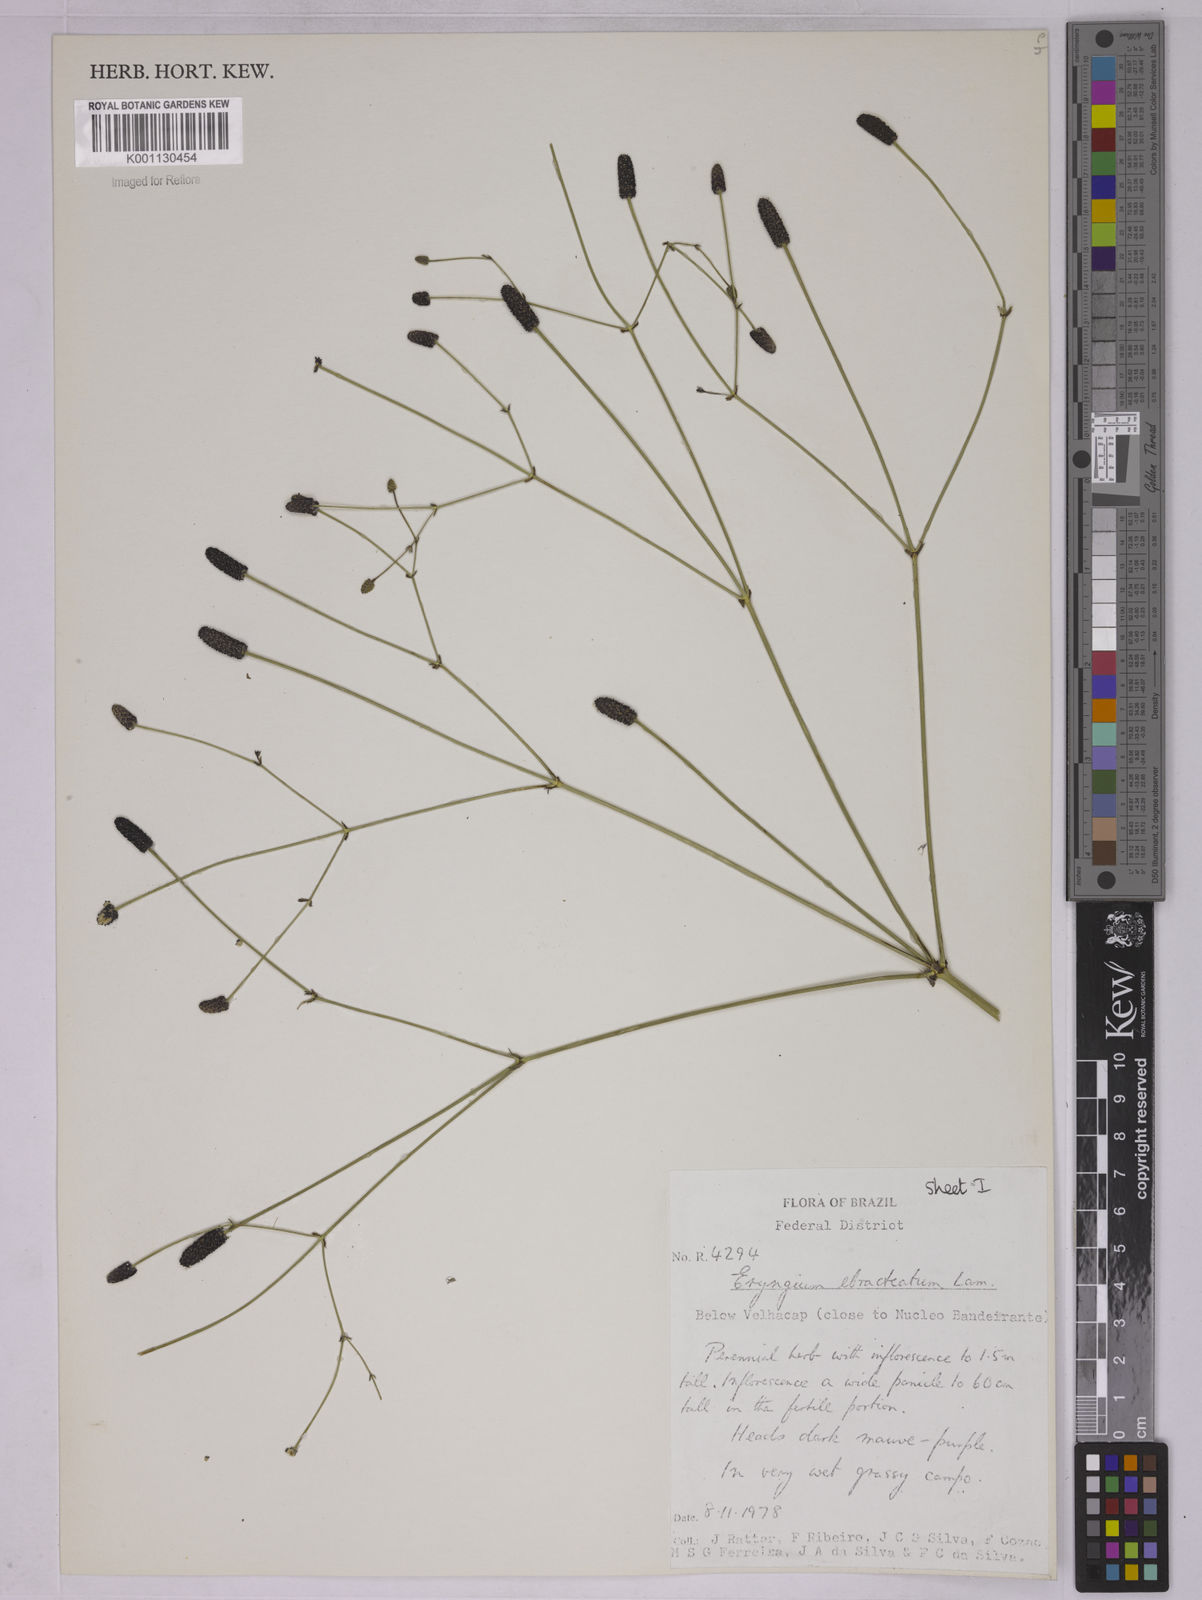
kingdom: Plantae
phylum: Tracheophyta
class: Magnoliopsida
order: Apiales
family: Apiaceae
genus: Eryngium
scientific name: Eryngium ebracteatum
